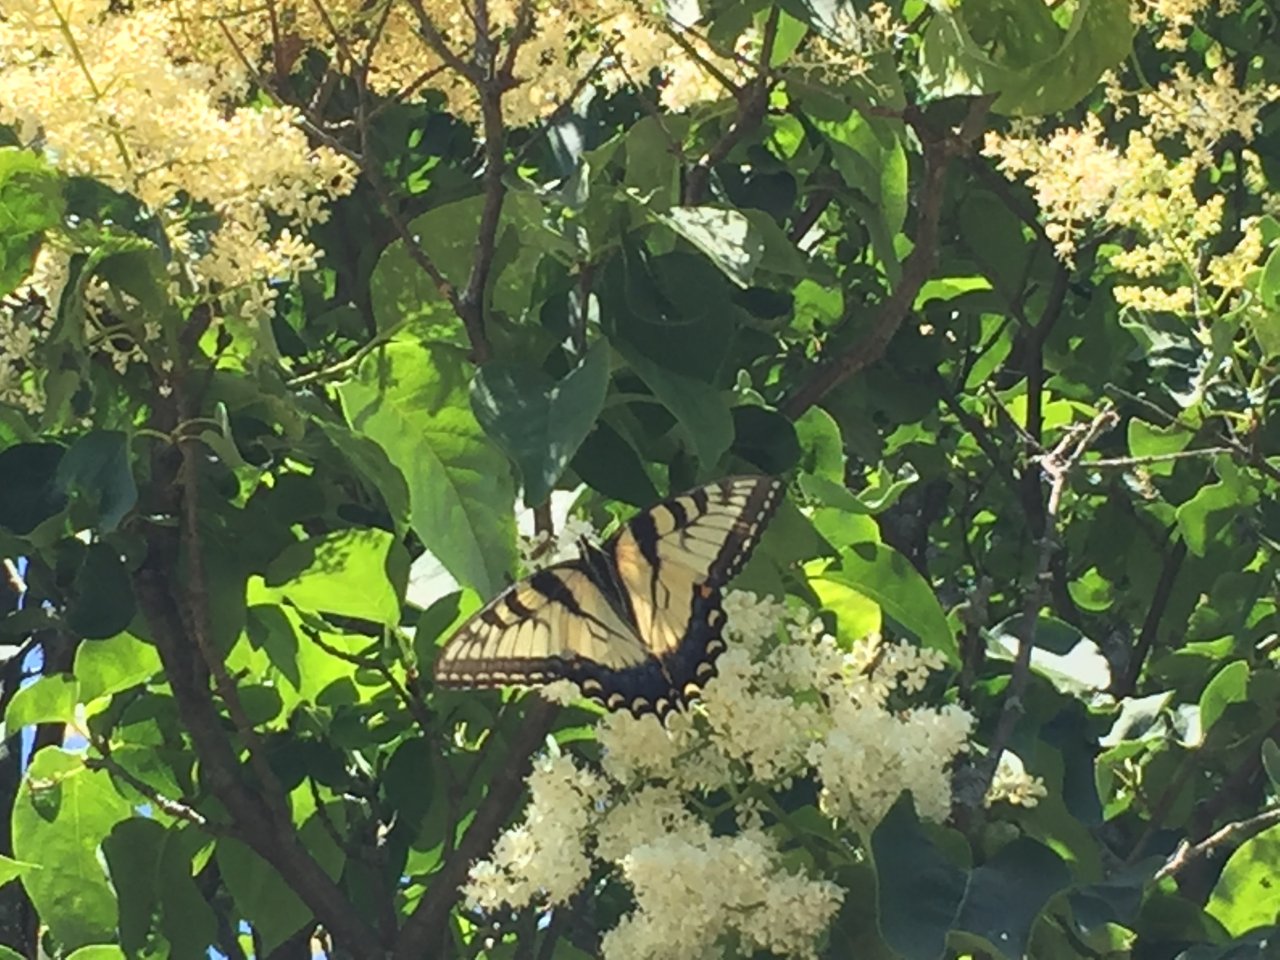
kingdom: Animalia
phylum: Arthropoda
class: Insecta
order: Lepidoptera
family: Papilionidae
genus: Pterourus
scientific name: Pterourus glaucus
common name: Eastern Tiger Swallowtail
